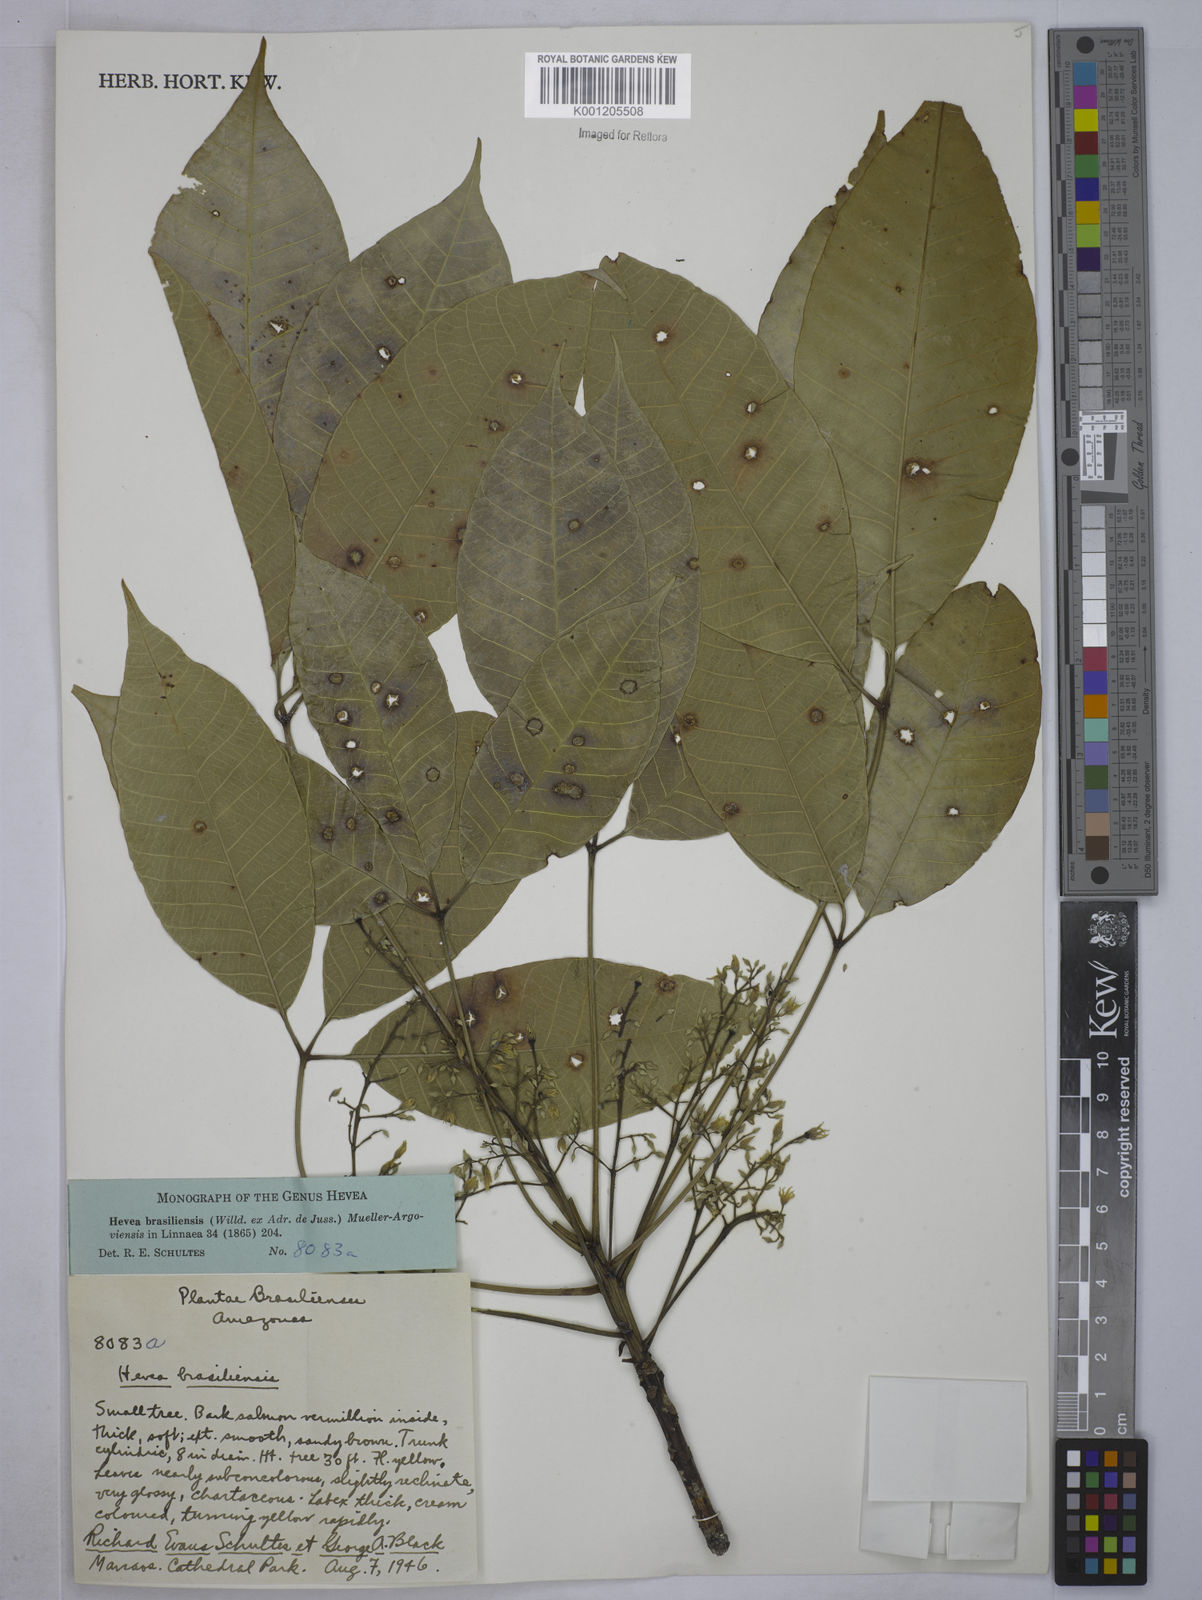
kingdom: Plantae
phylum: Tracheophyta
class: Magnoliopsida
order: Malpighiales
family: Euphorbiaceae
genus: Hevea
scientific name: Hevea
